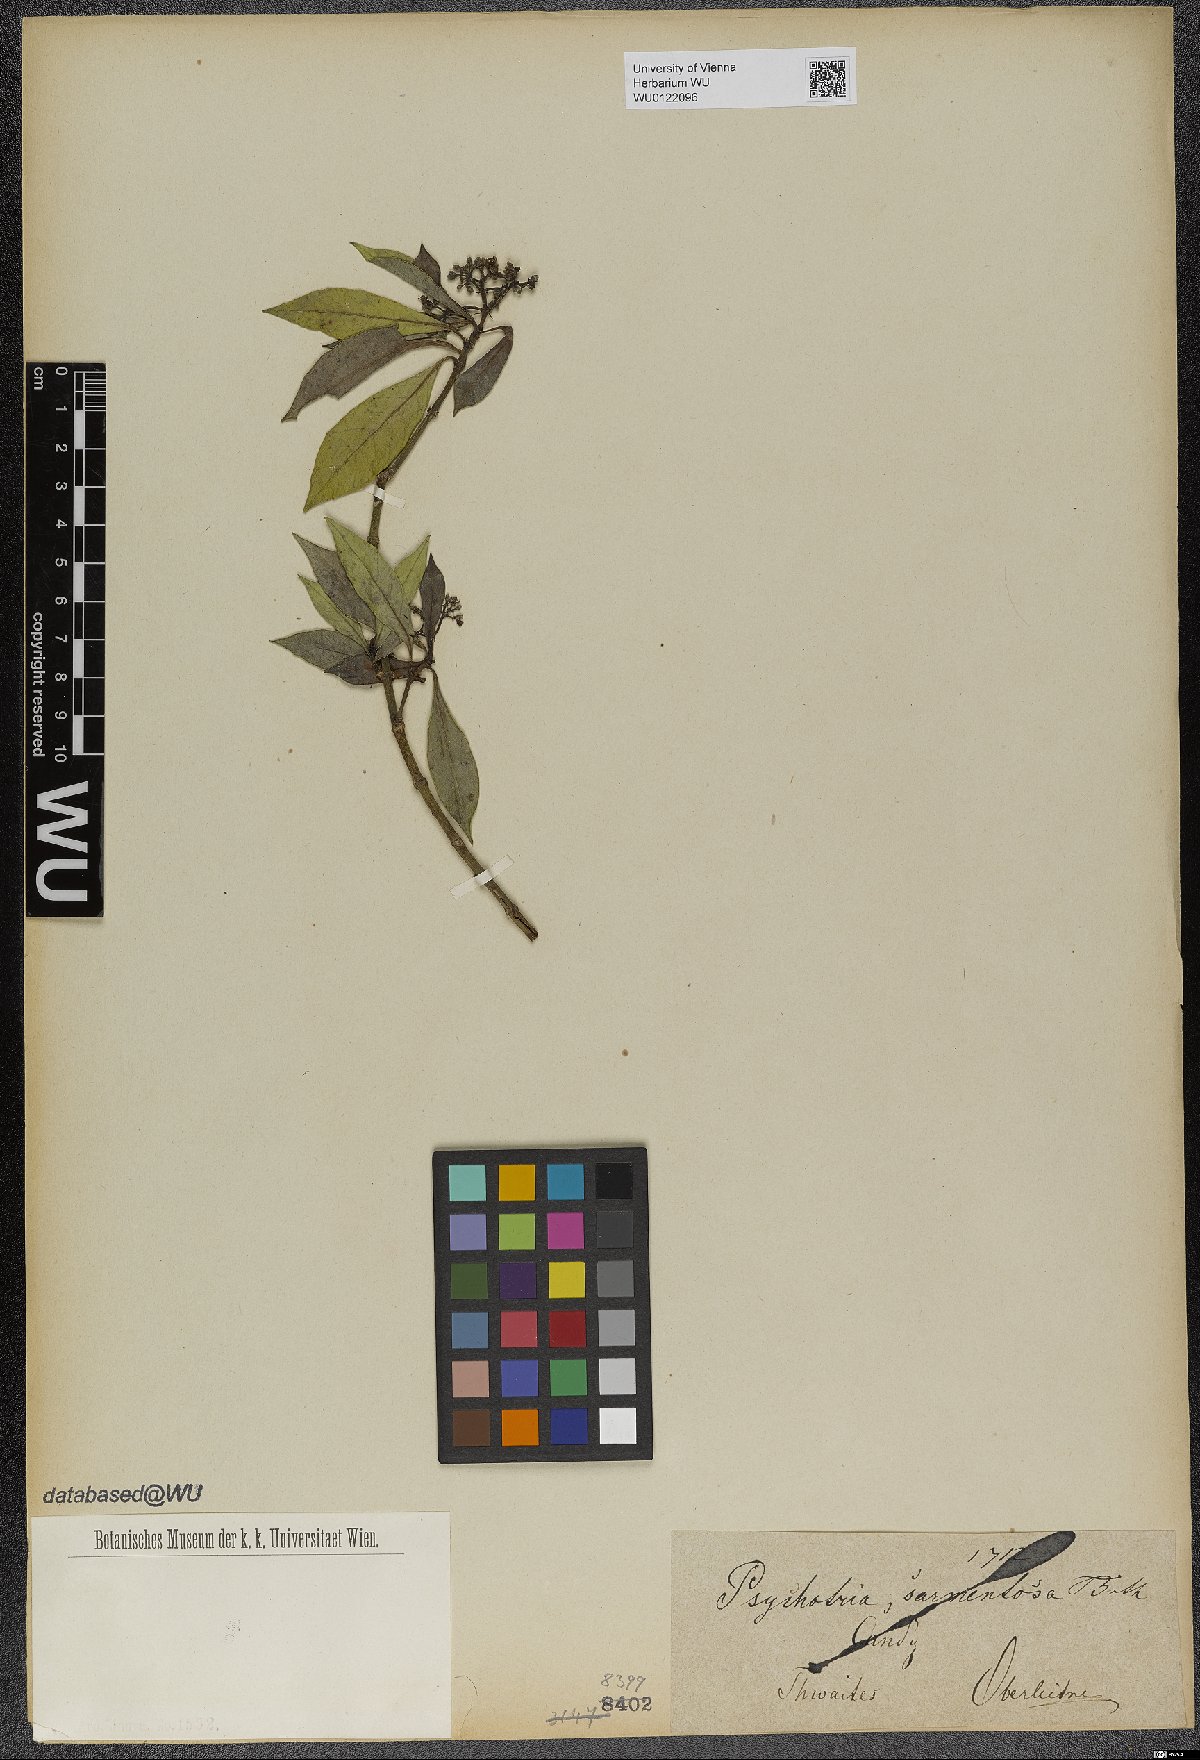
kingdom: Plantae
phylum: Tracheophyta
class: Magnoliopsida
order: Gentianales
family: Rubiaceae
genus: Psychotria
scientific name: Psychotria sarmentosa
